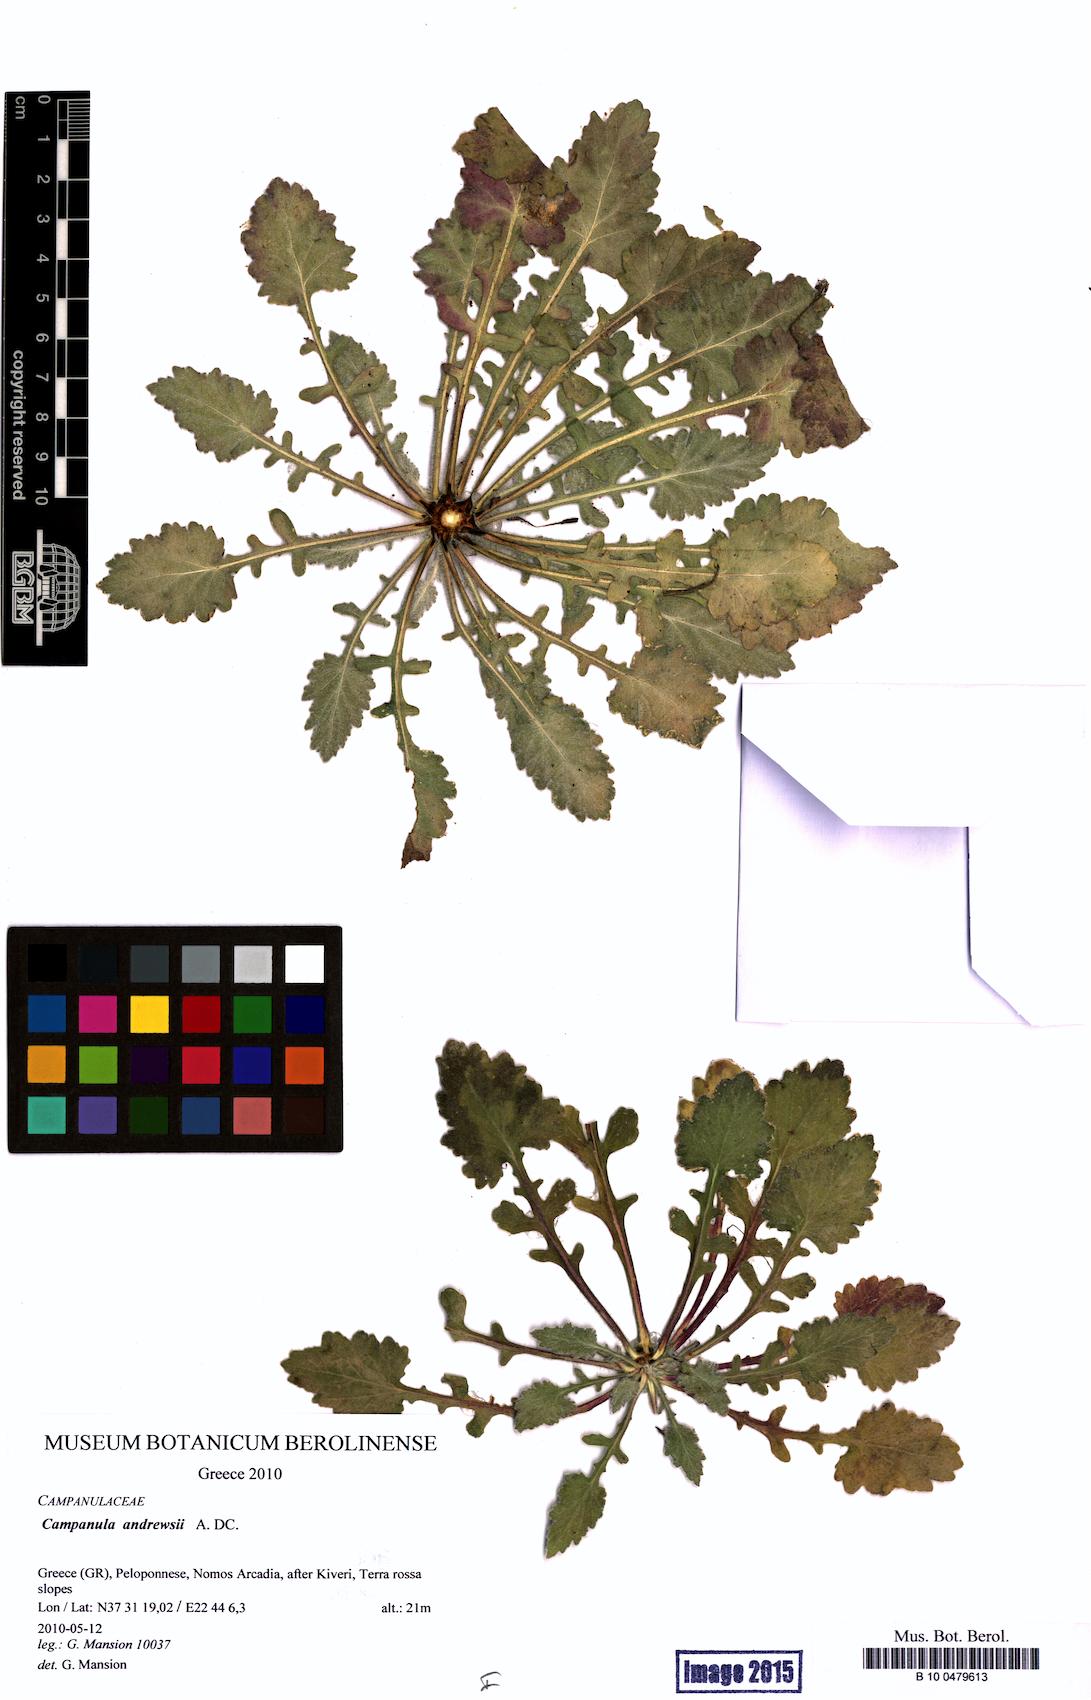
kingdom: Plantae
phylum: Tracheophyta
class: Magnoliopsida
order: Asterales
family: Campanulaceae
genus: Campanula
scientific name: Campanula andrewsii
